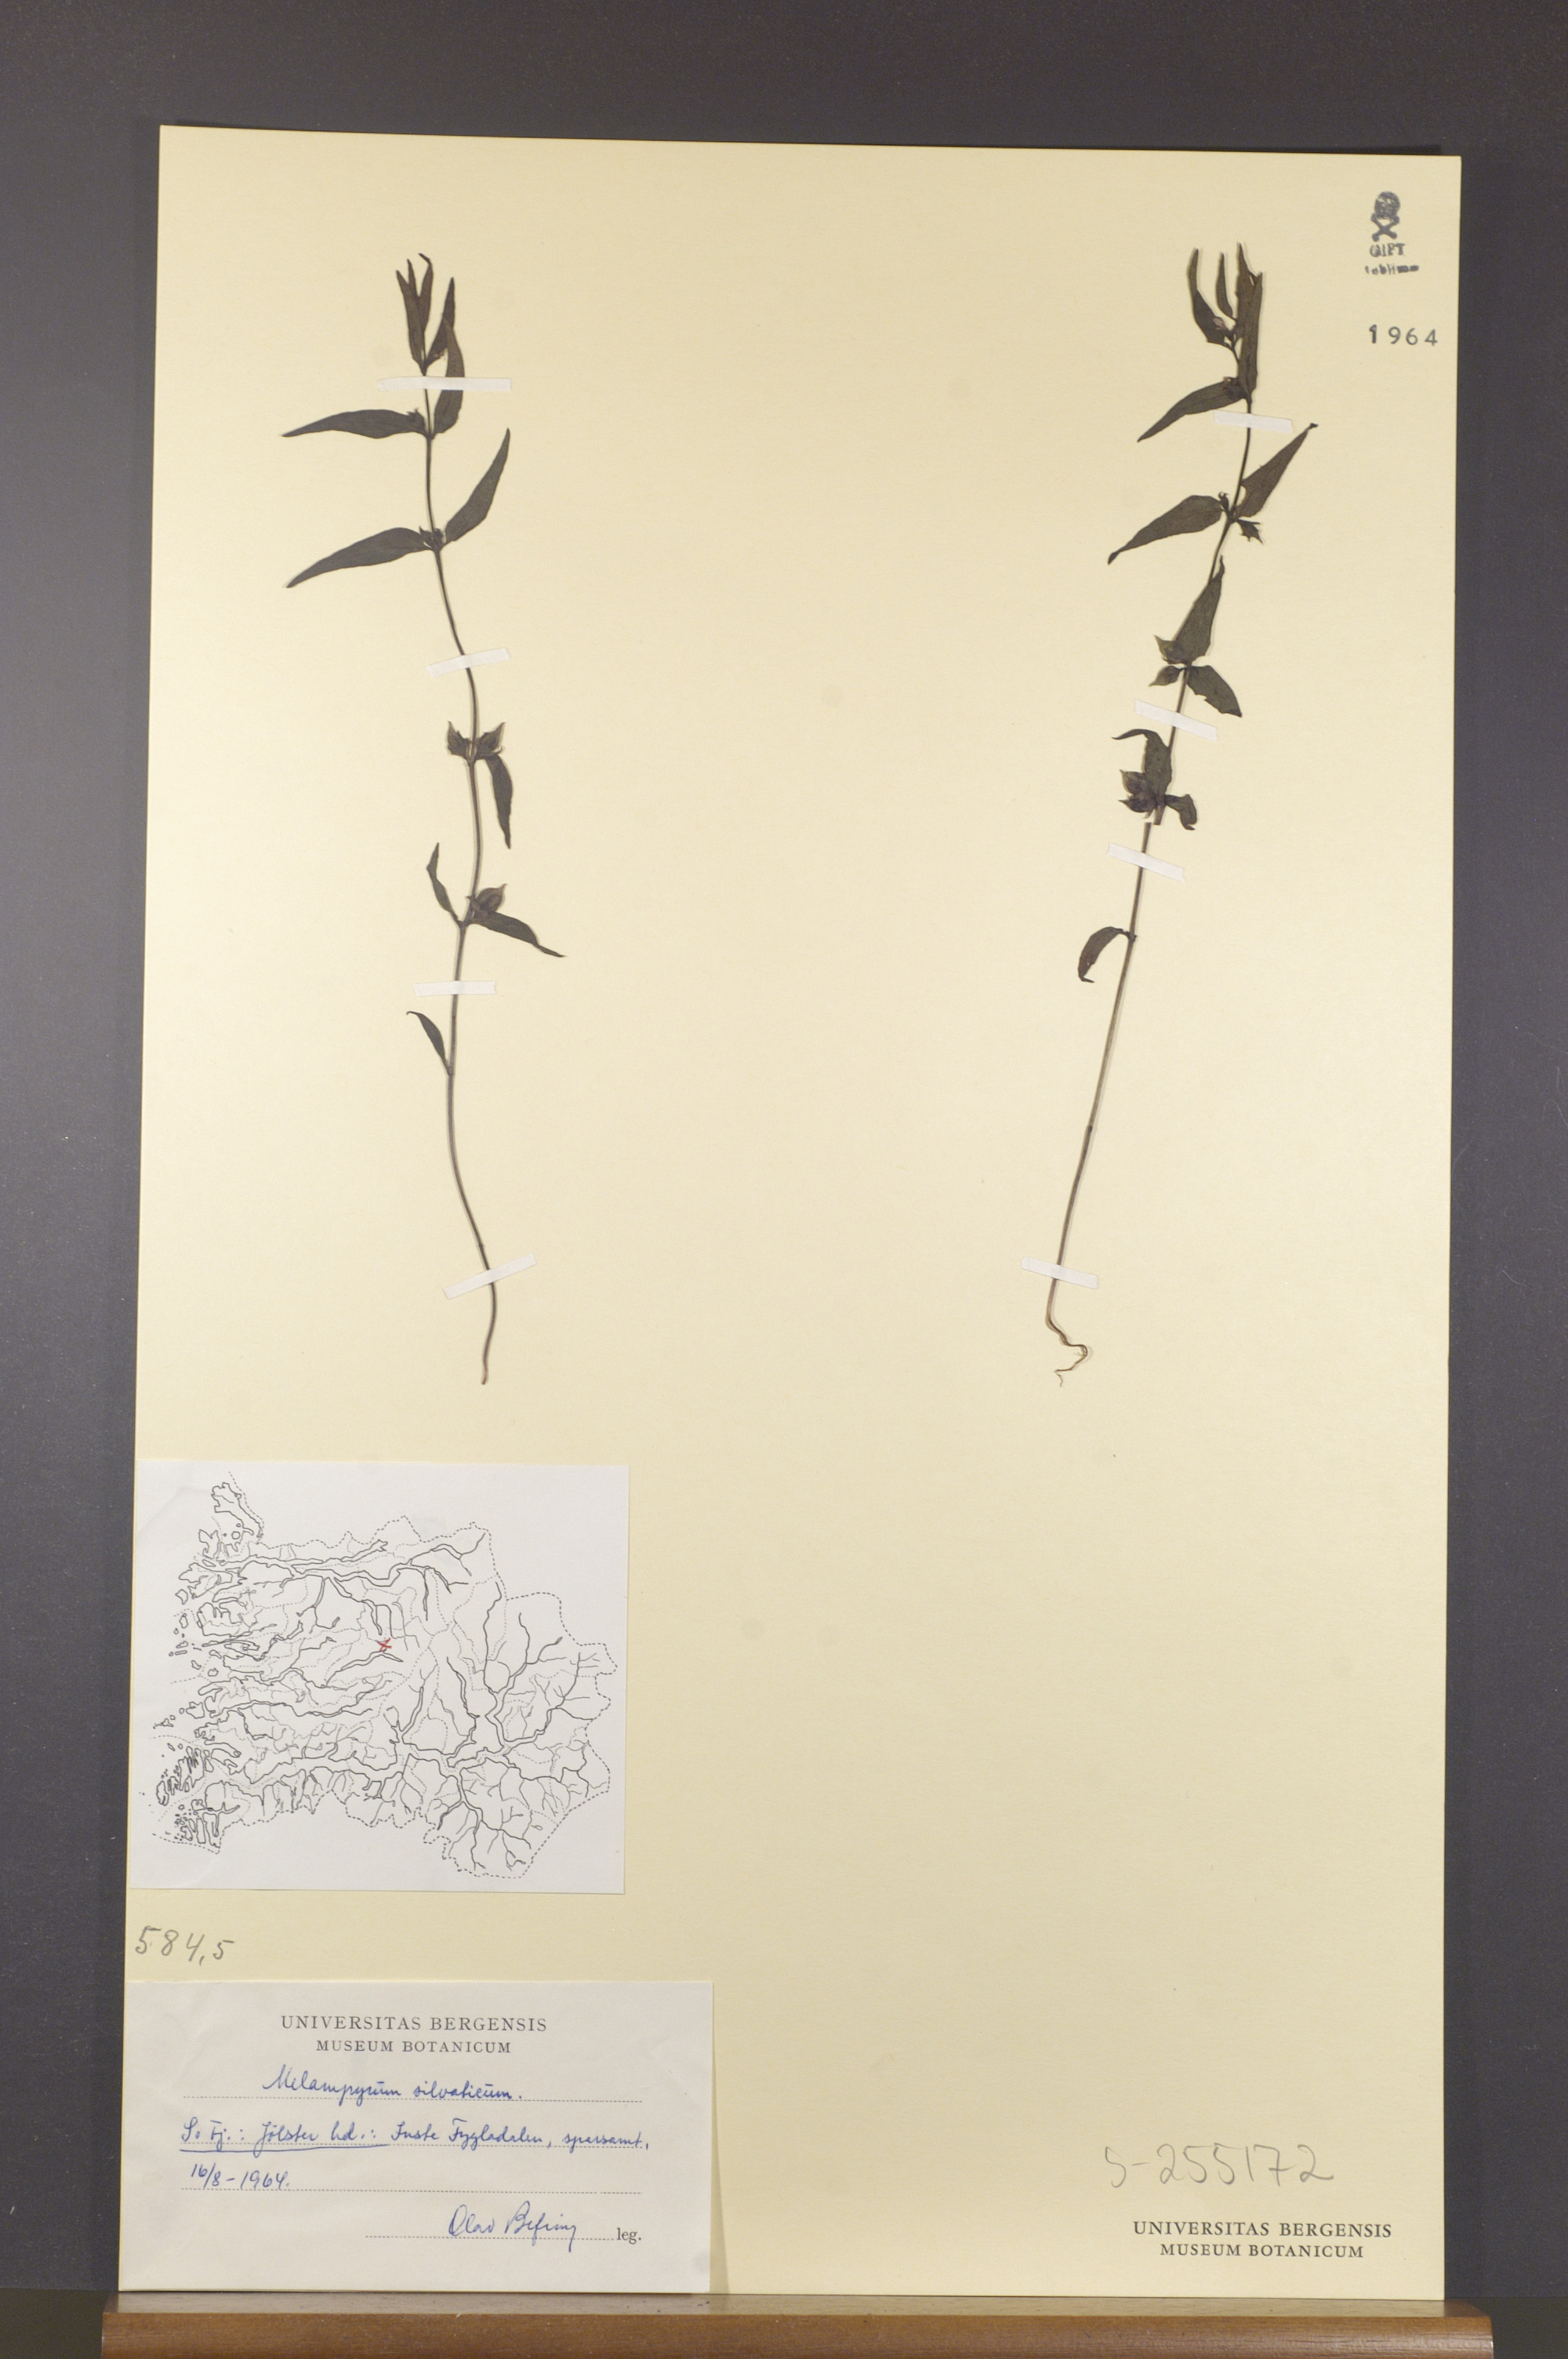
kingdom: Plantae
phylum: Tracheophyta
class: Magnoliopsida
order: Lamiales
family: Orobanchaceae
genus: Melampyrum
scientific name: Melampyrum sylvaticum
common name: Small cow-wheat
